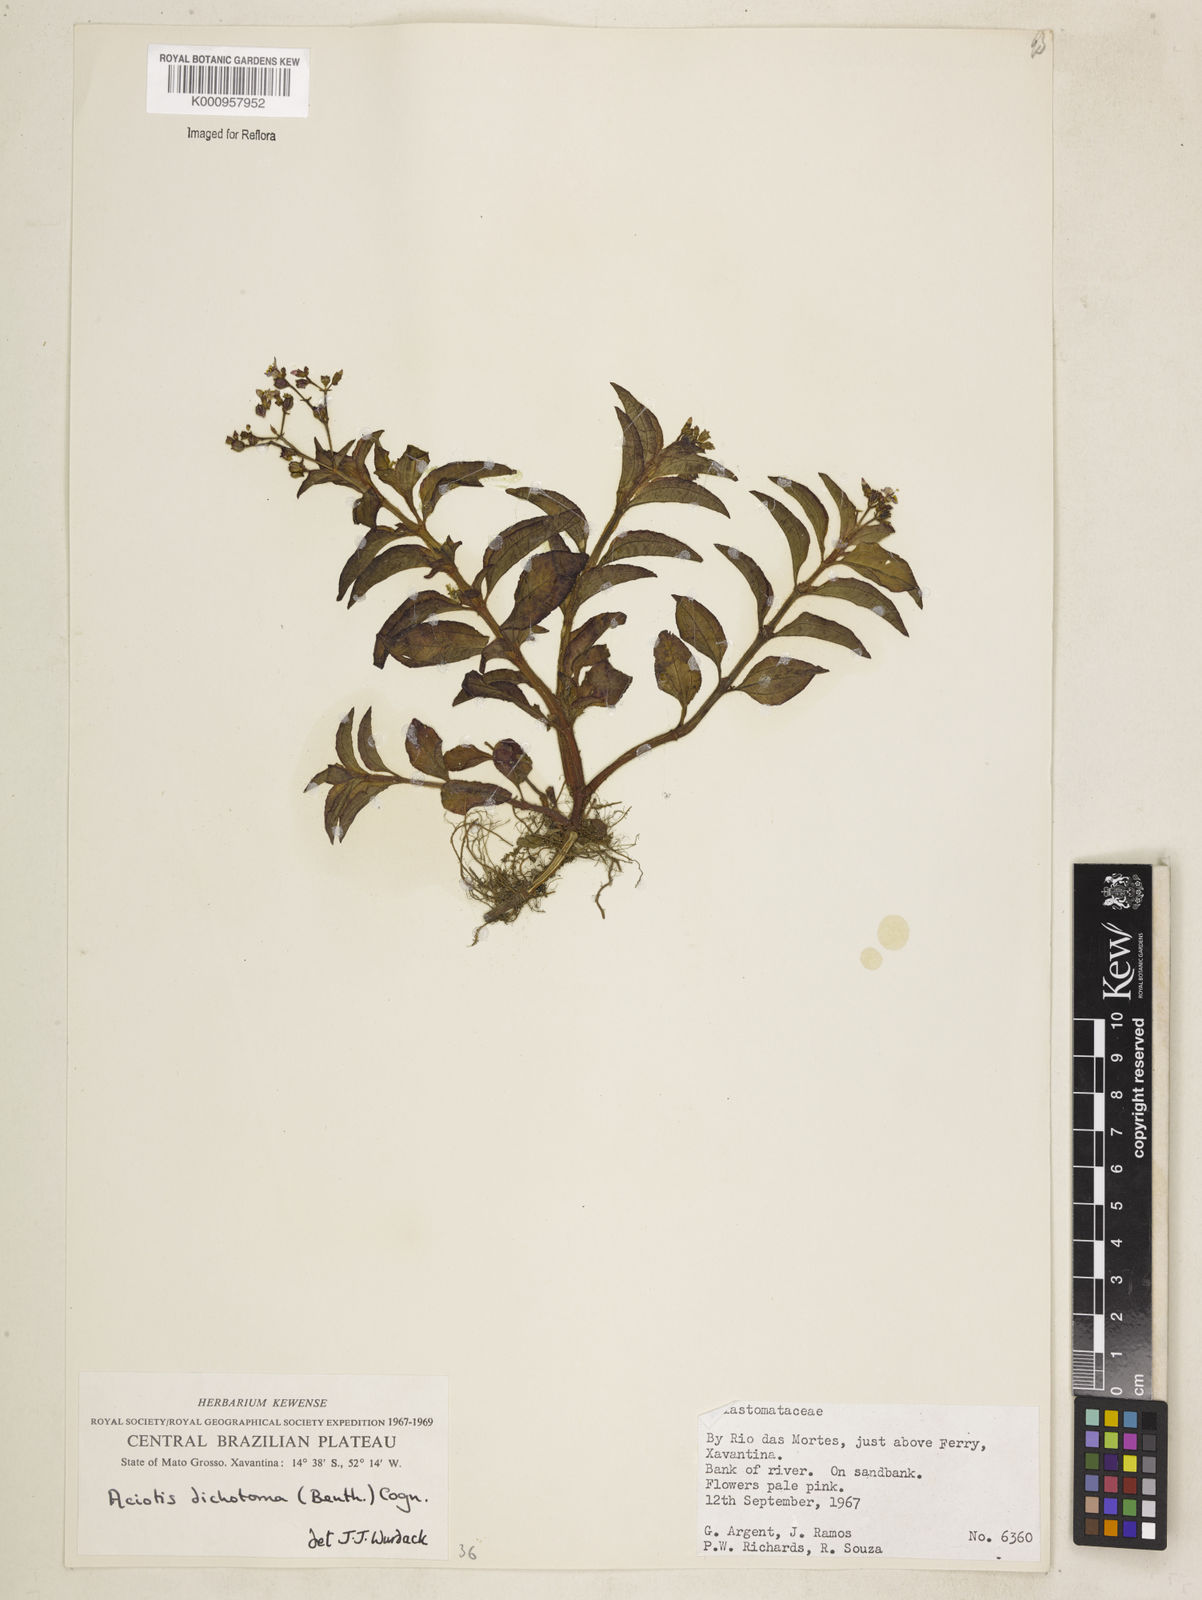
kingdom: Plantae
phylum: Tracheophyta
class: Magnoliopsida
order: Myrtales
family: Melastomataceae
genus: Aciotis
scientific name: Aciotis acuminifolia
